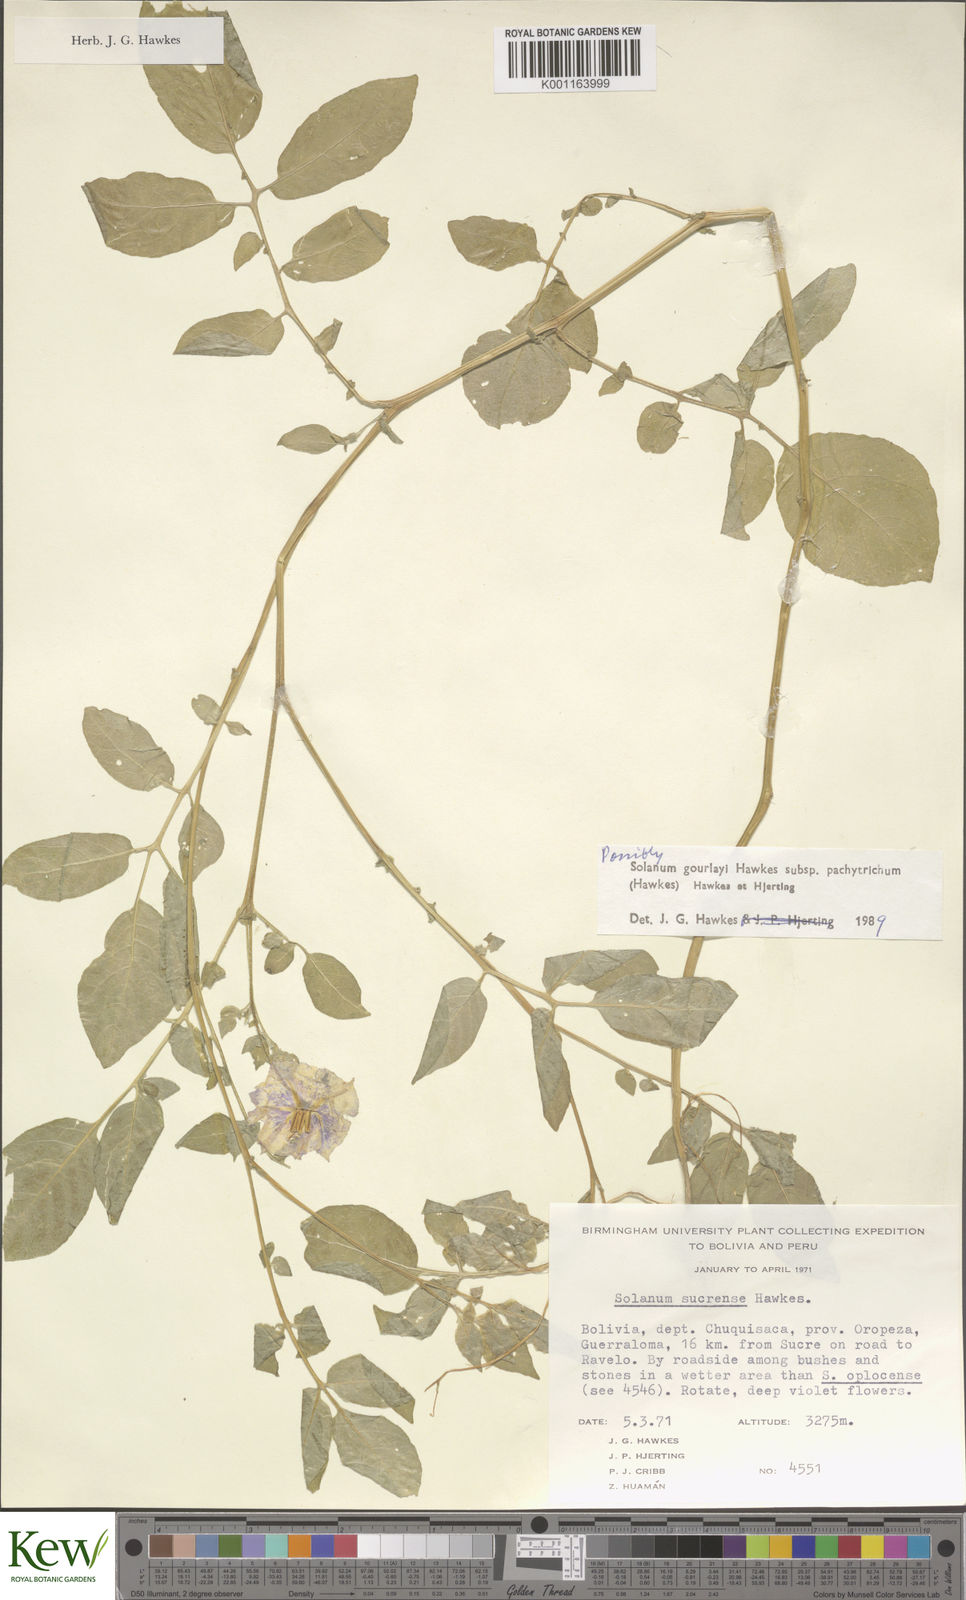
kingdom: Plantae
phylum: Tracheophyta
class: Magnoliopsida
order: Solanales
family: Solanaceae
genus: Solanum
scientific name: Solanum brevicaule
